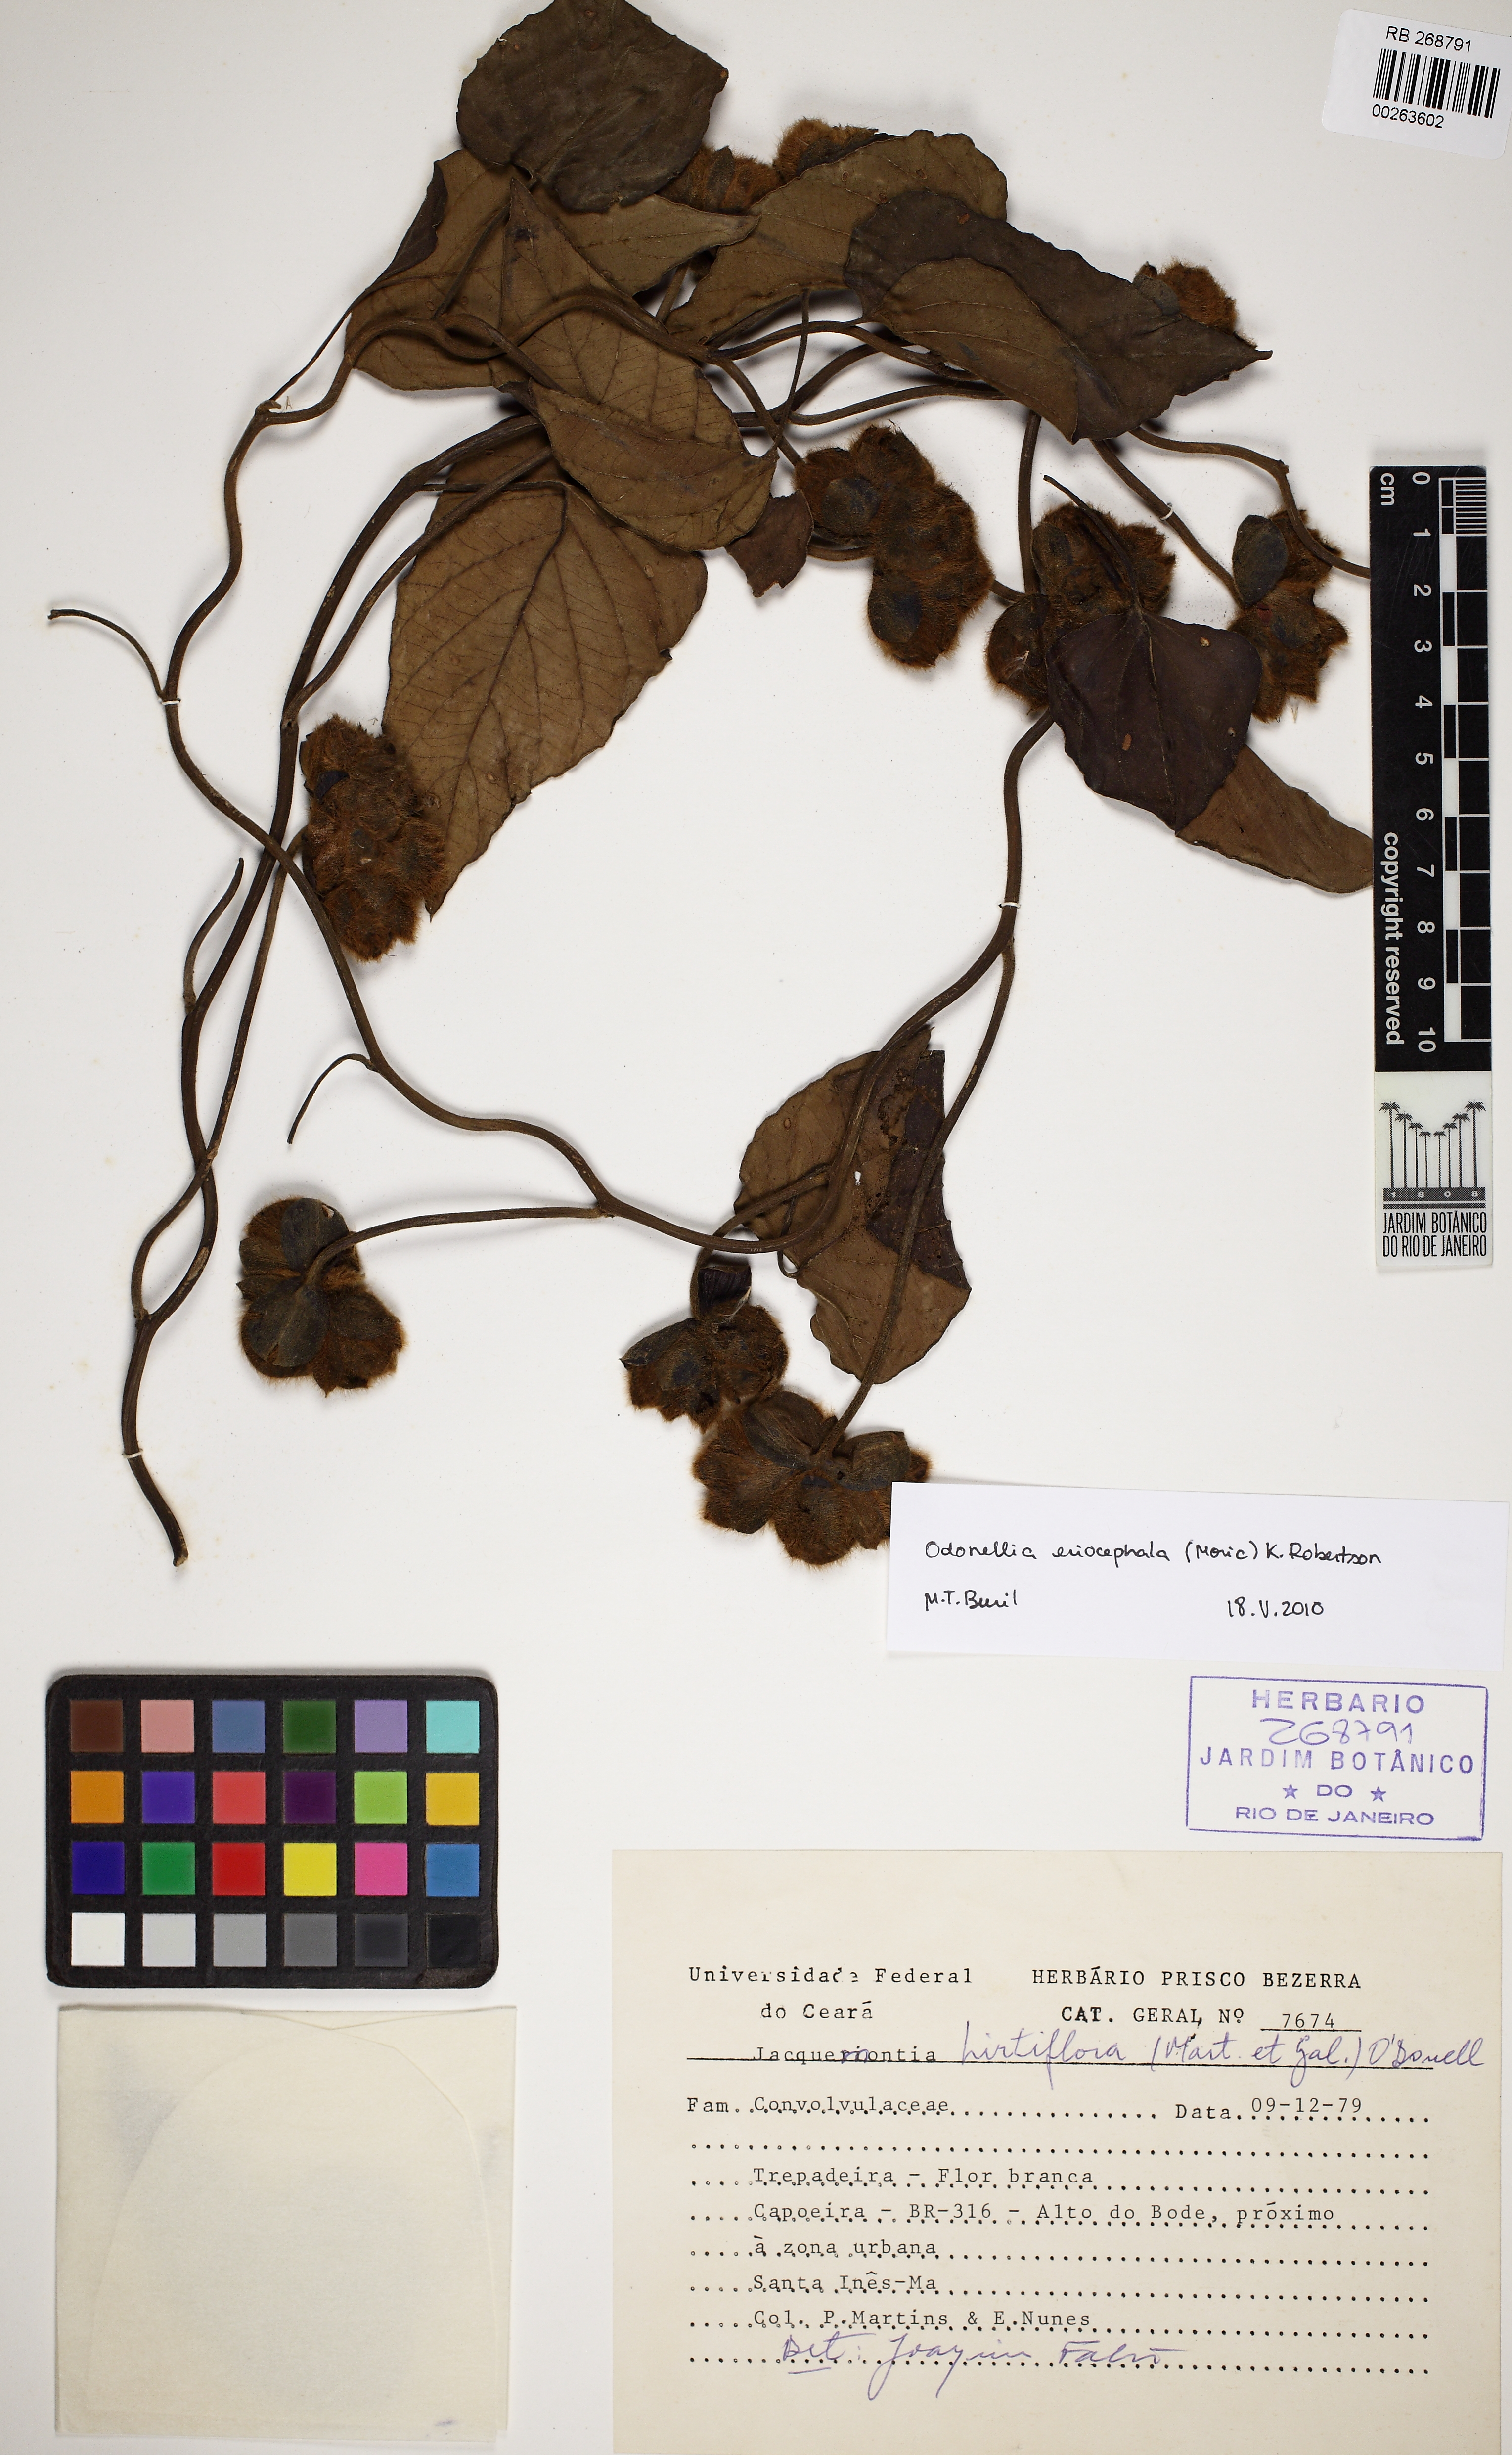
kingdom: Plantae
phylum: Tracheophyta
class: Magnoliopsida
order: Solanales
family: Convolvulaceae
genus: Odonellia
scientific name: Odonellia hirtiflora
